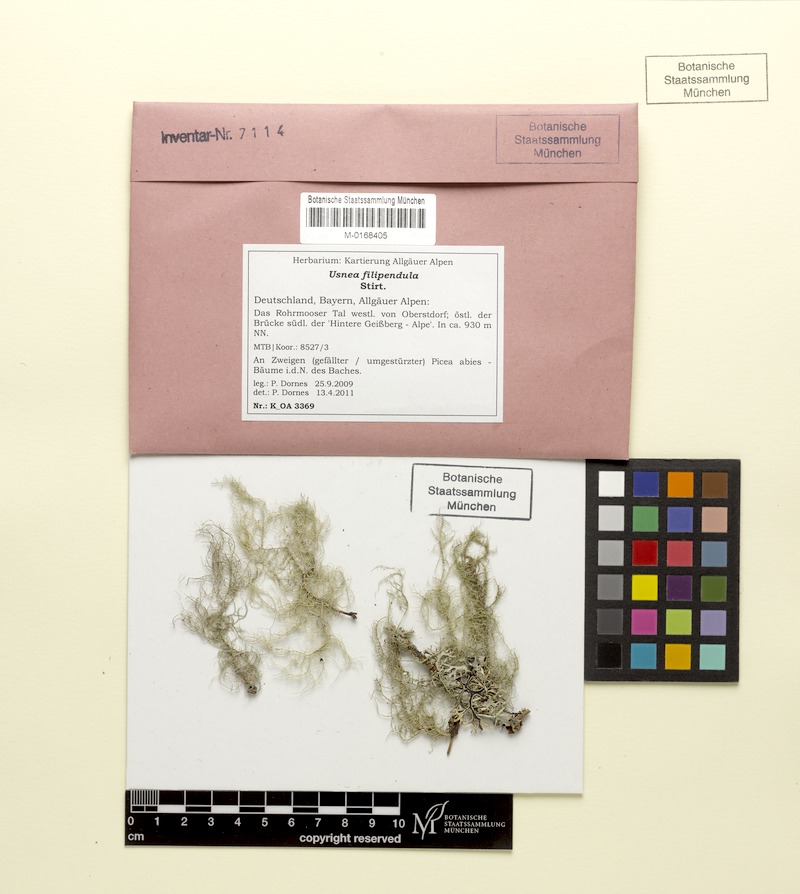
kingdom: Fungi
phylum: Ascomycota
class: Lecanoromycetes
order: Lecanorales
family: Parmeliaceae
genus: Usnea
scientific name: Usnea filipendula
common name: Fishbone beard lichen
